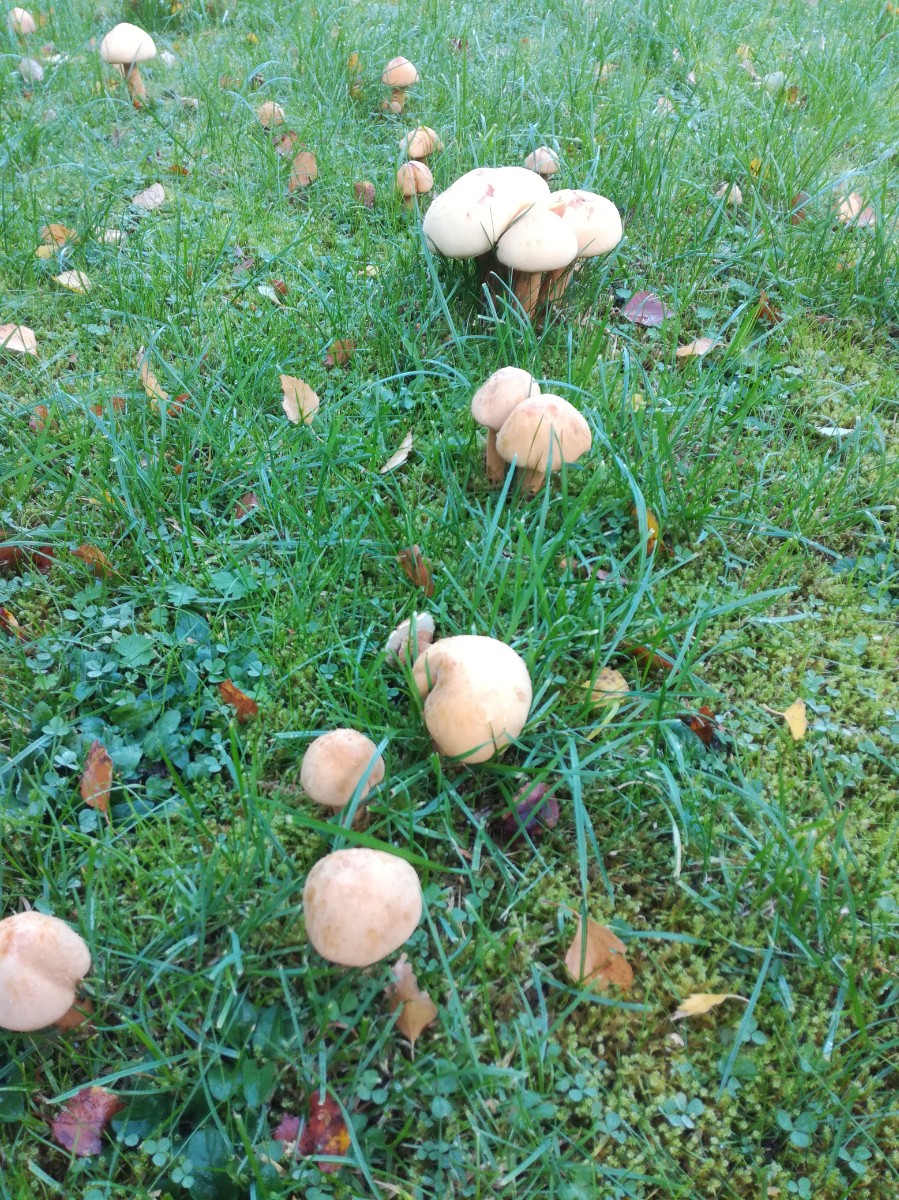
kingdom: Fungi
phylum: Basidiomycota
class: Agaricomycetes
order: Agaricales
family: Tricholomataceae
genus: Phaeolepiota
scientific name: Phaeolepiota aurea
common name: gyldenhat
